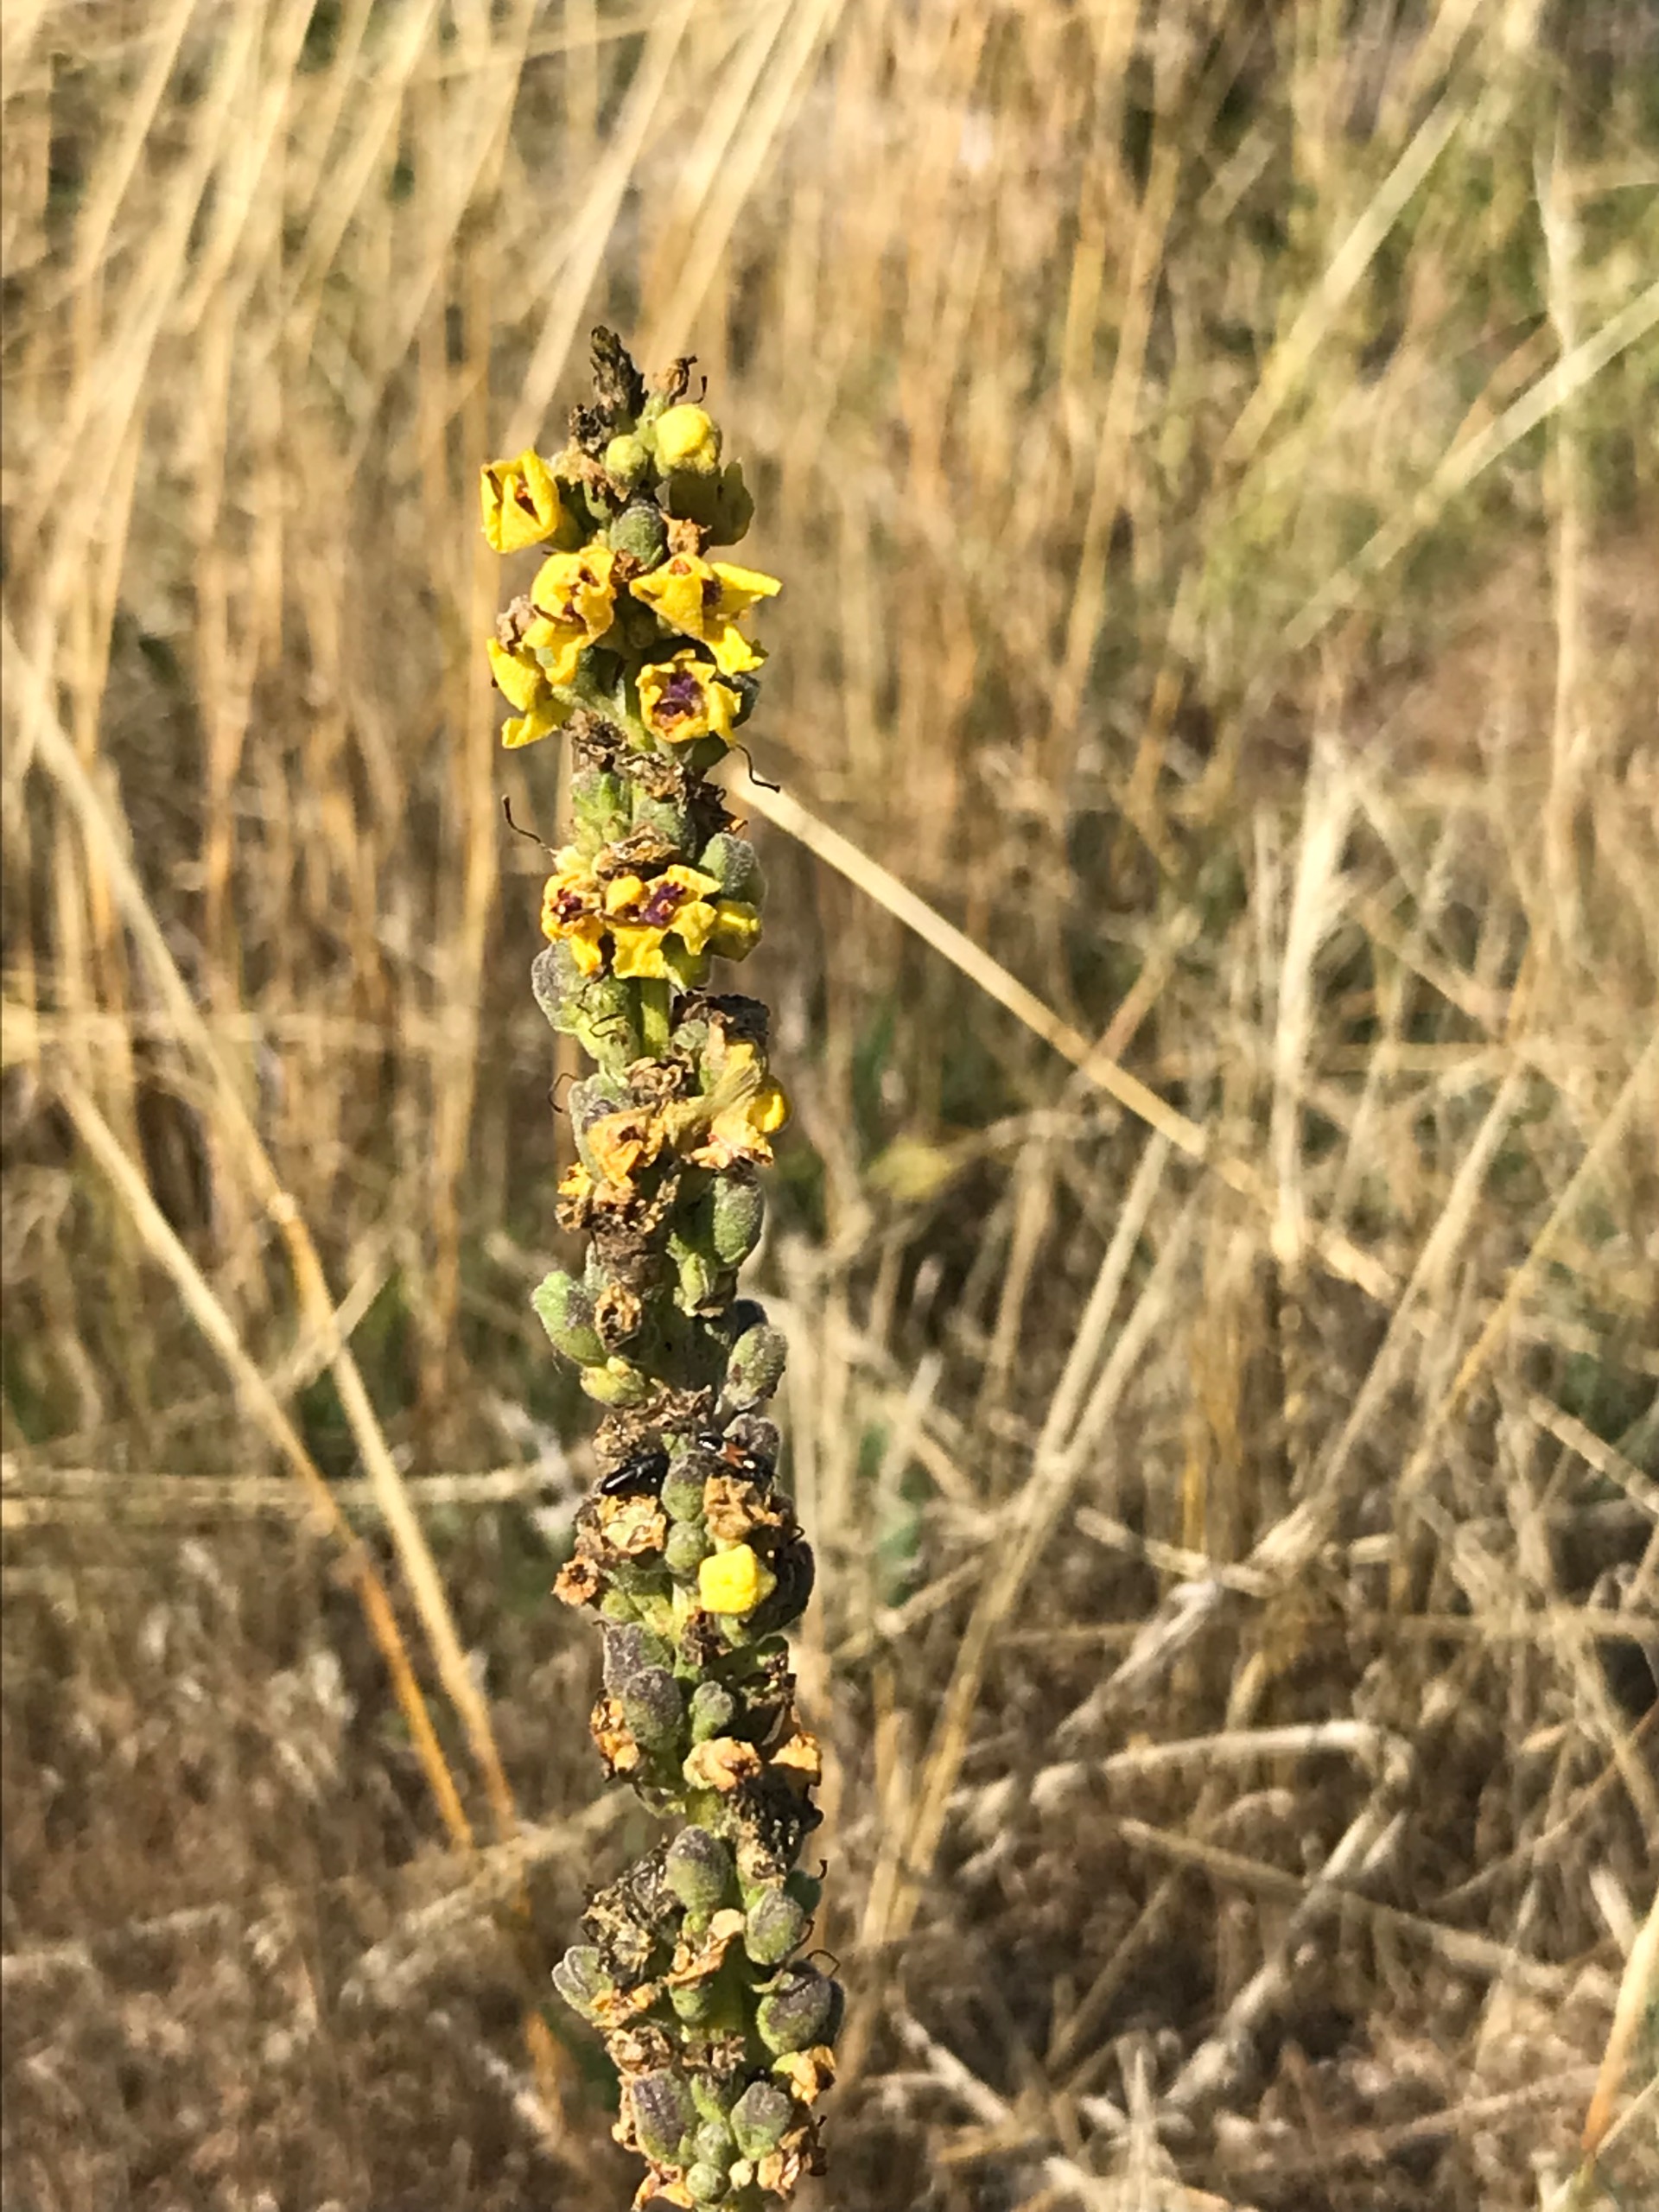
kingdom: Plantae
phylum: Tracheophyta
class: Magnoliopsida
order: Lamiales
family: Scrophulariaceae
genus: Verbascum
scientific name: Verbascum nigrum
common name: Mørk kongelys
